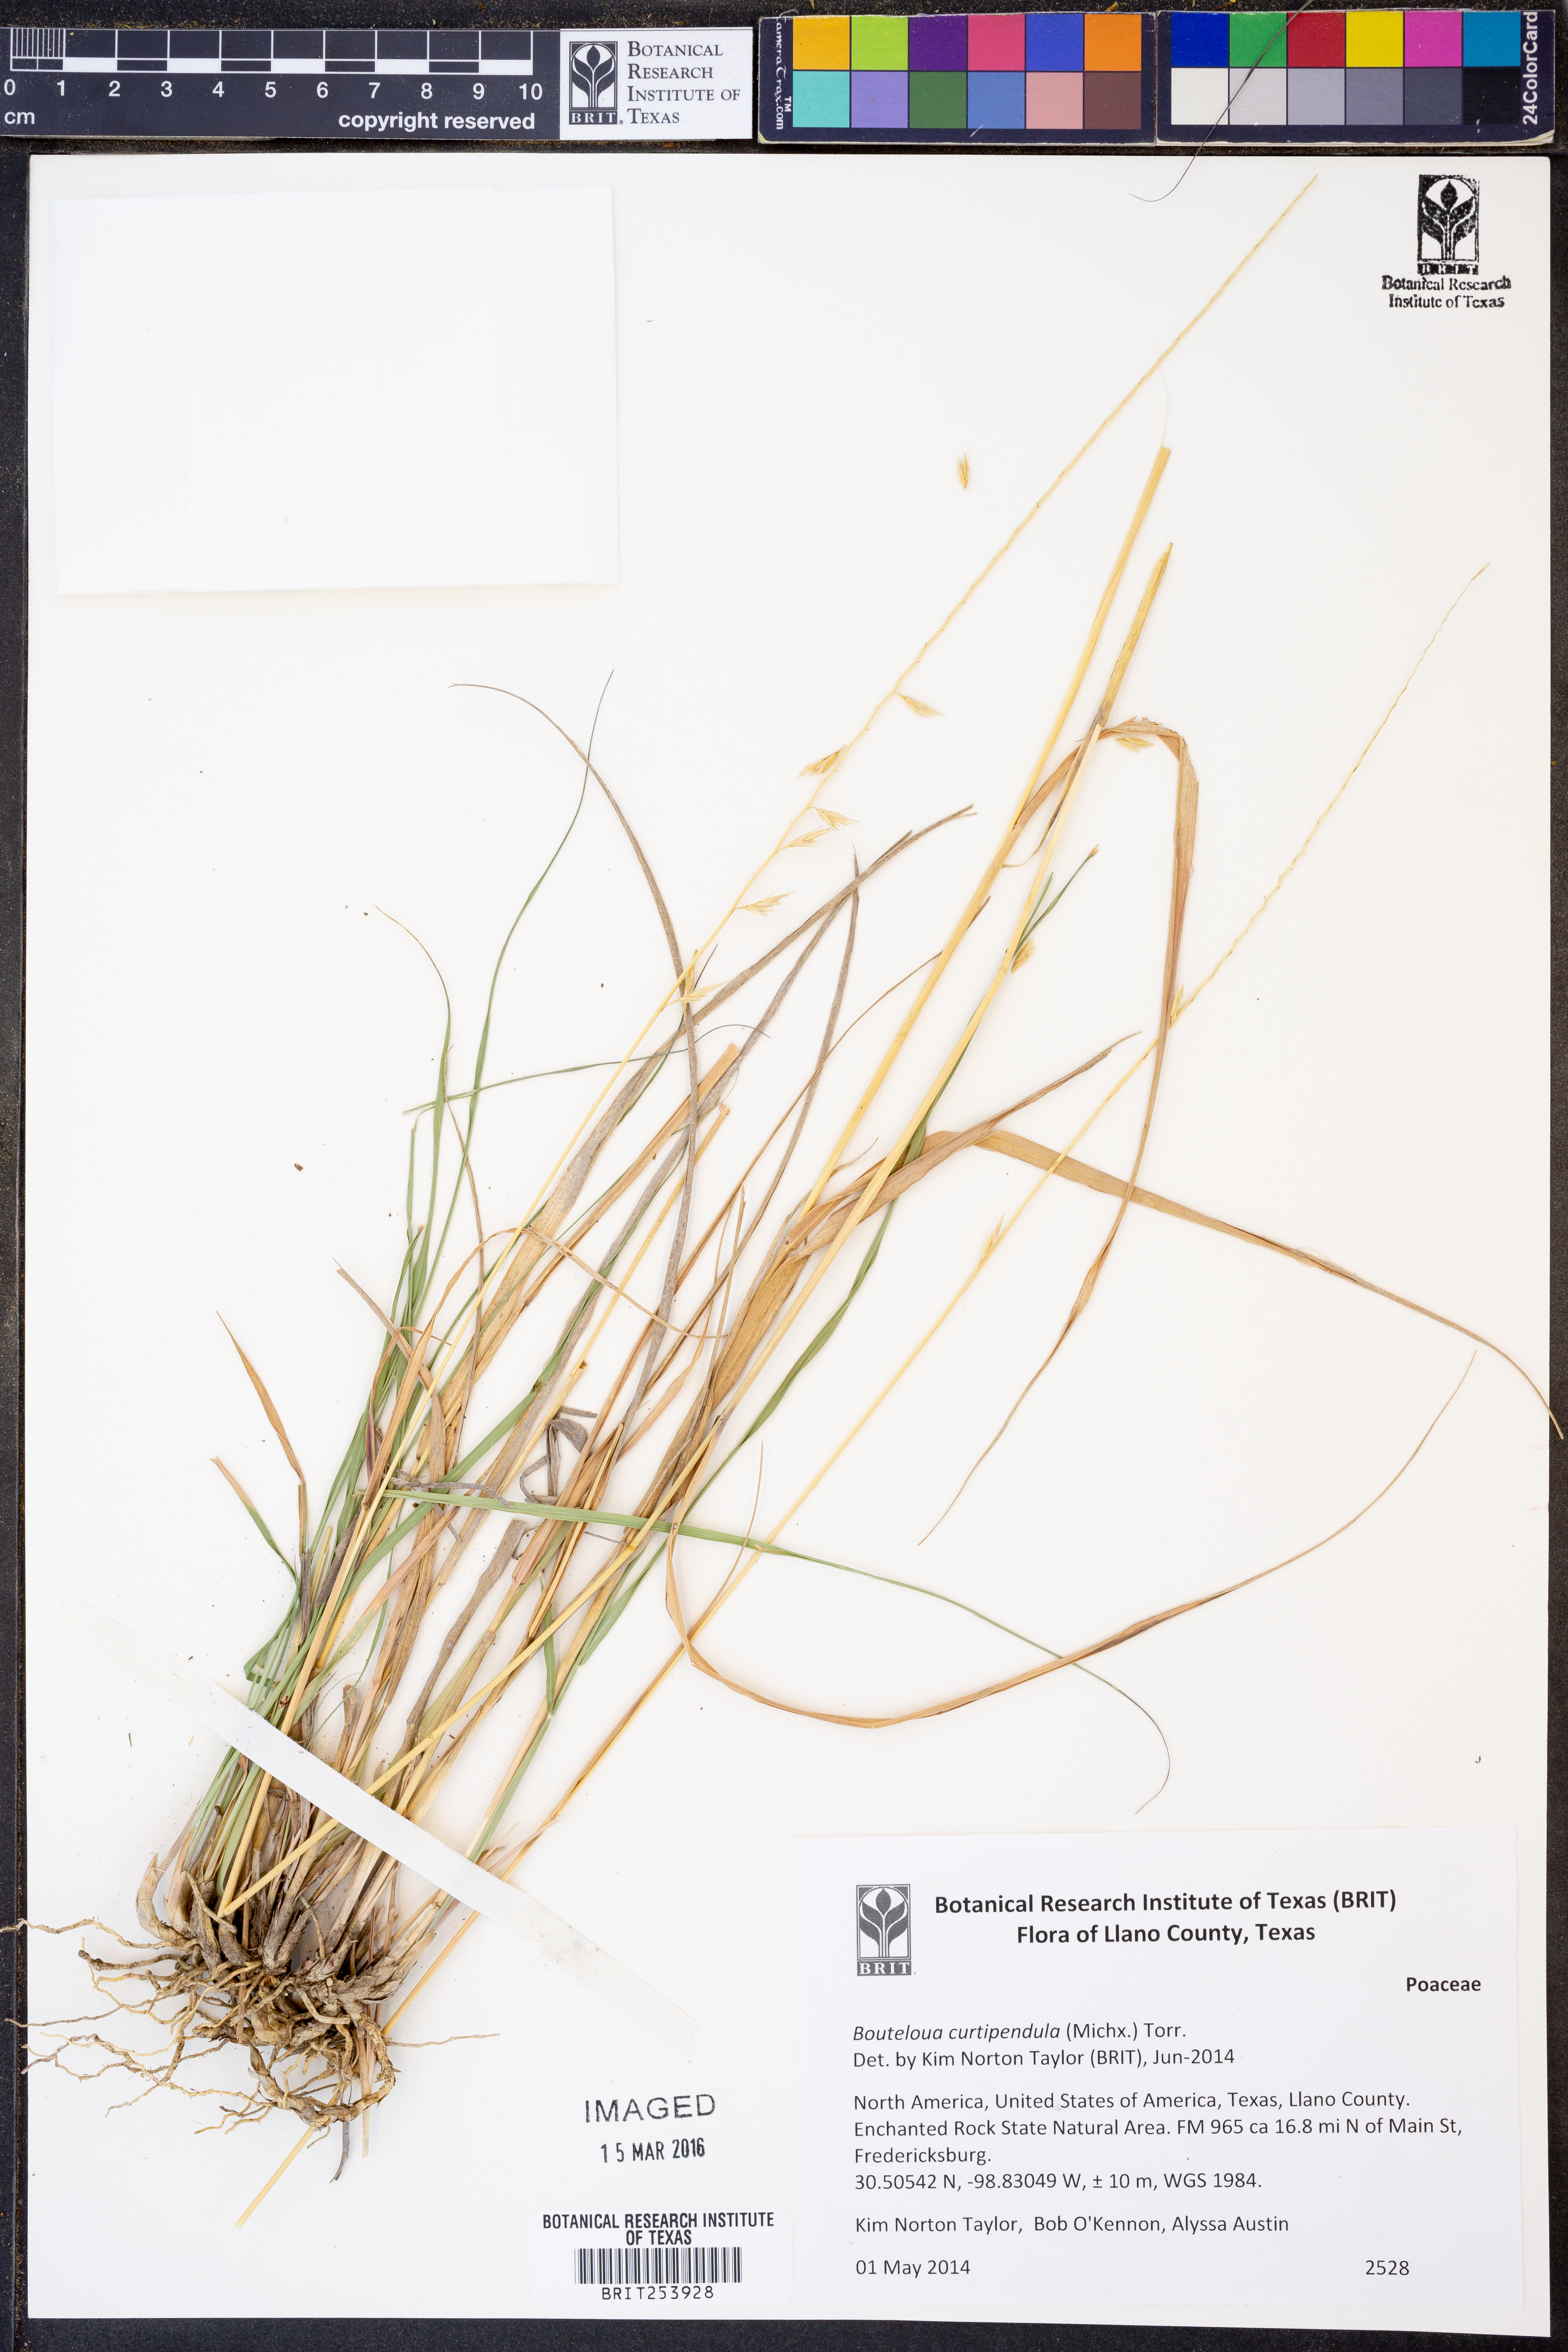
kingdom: Plantae
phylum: Tracheophyta
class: Liliopsida
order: Poales
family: Poaceae
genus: Bouteloua
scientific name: Bouteloua curtipendula
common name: Side-oats grama
